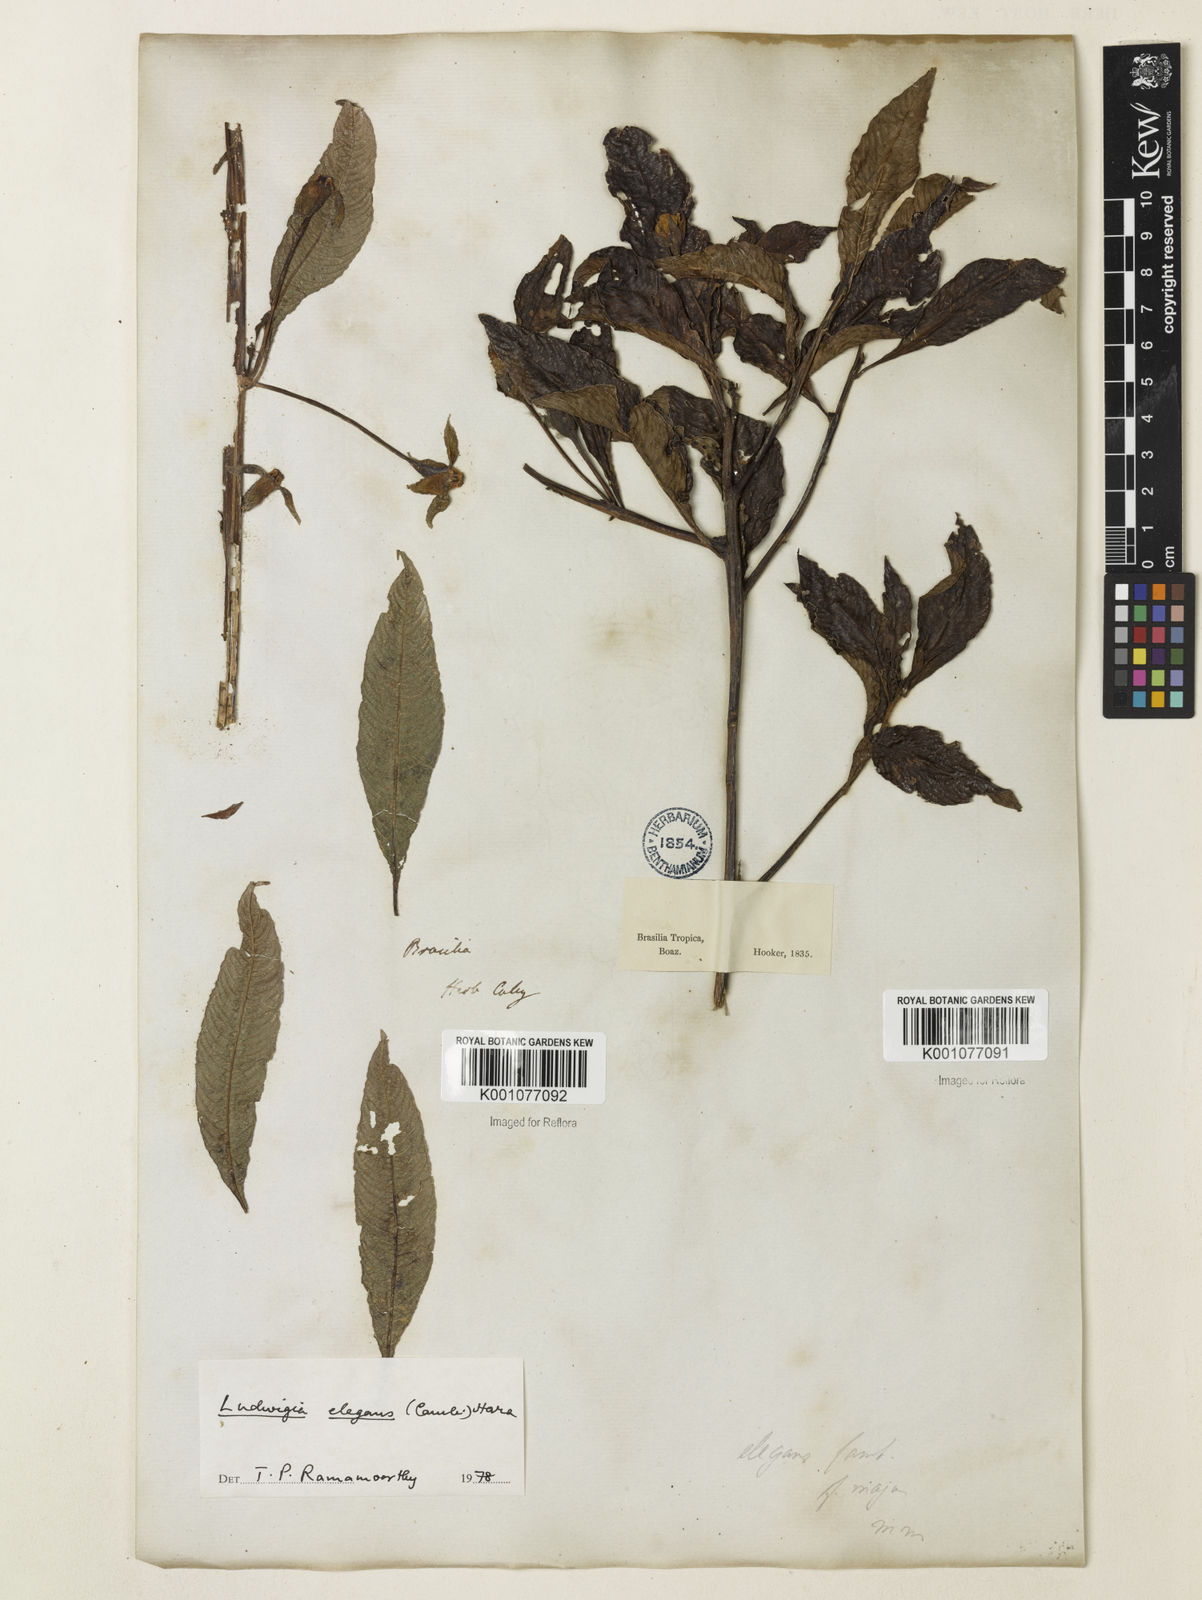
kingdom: Plantae
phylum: Tracheophyta
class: Magnoliopsida
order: Myrtales
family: Onagraceae
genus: Ludwigia
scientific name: Ludwigia elegans
